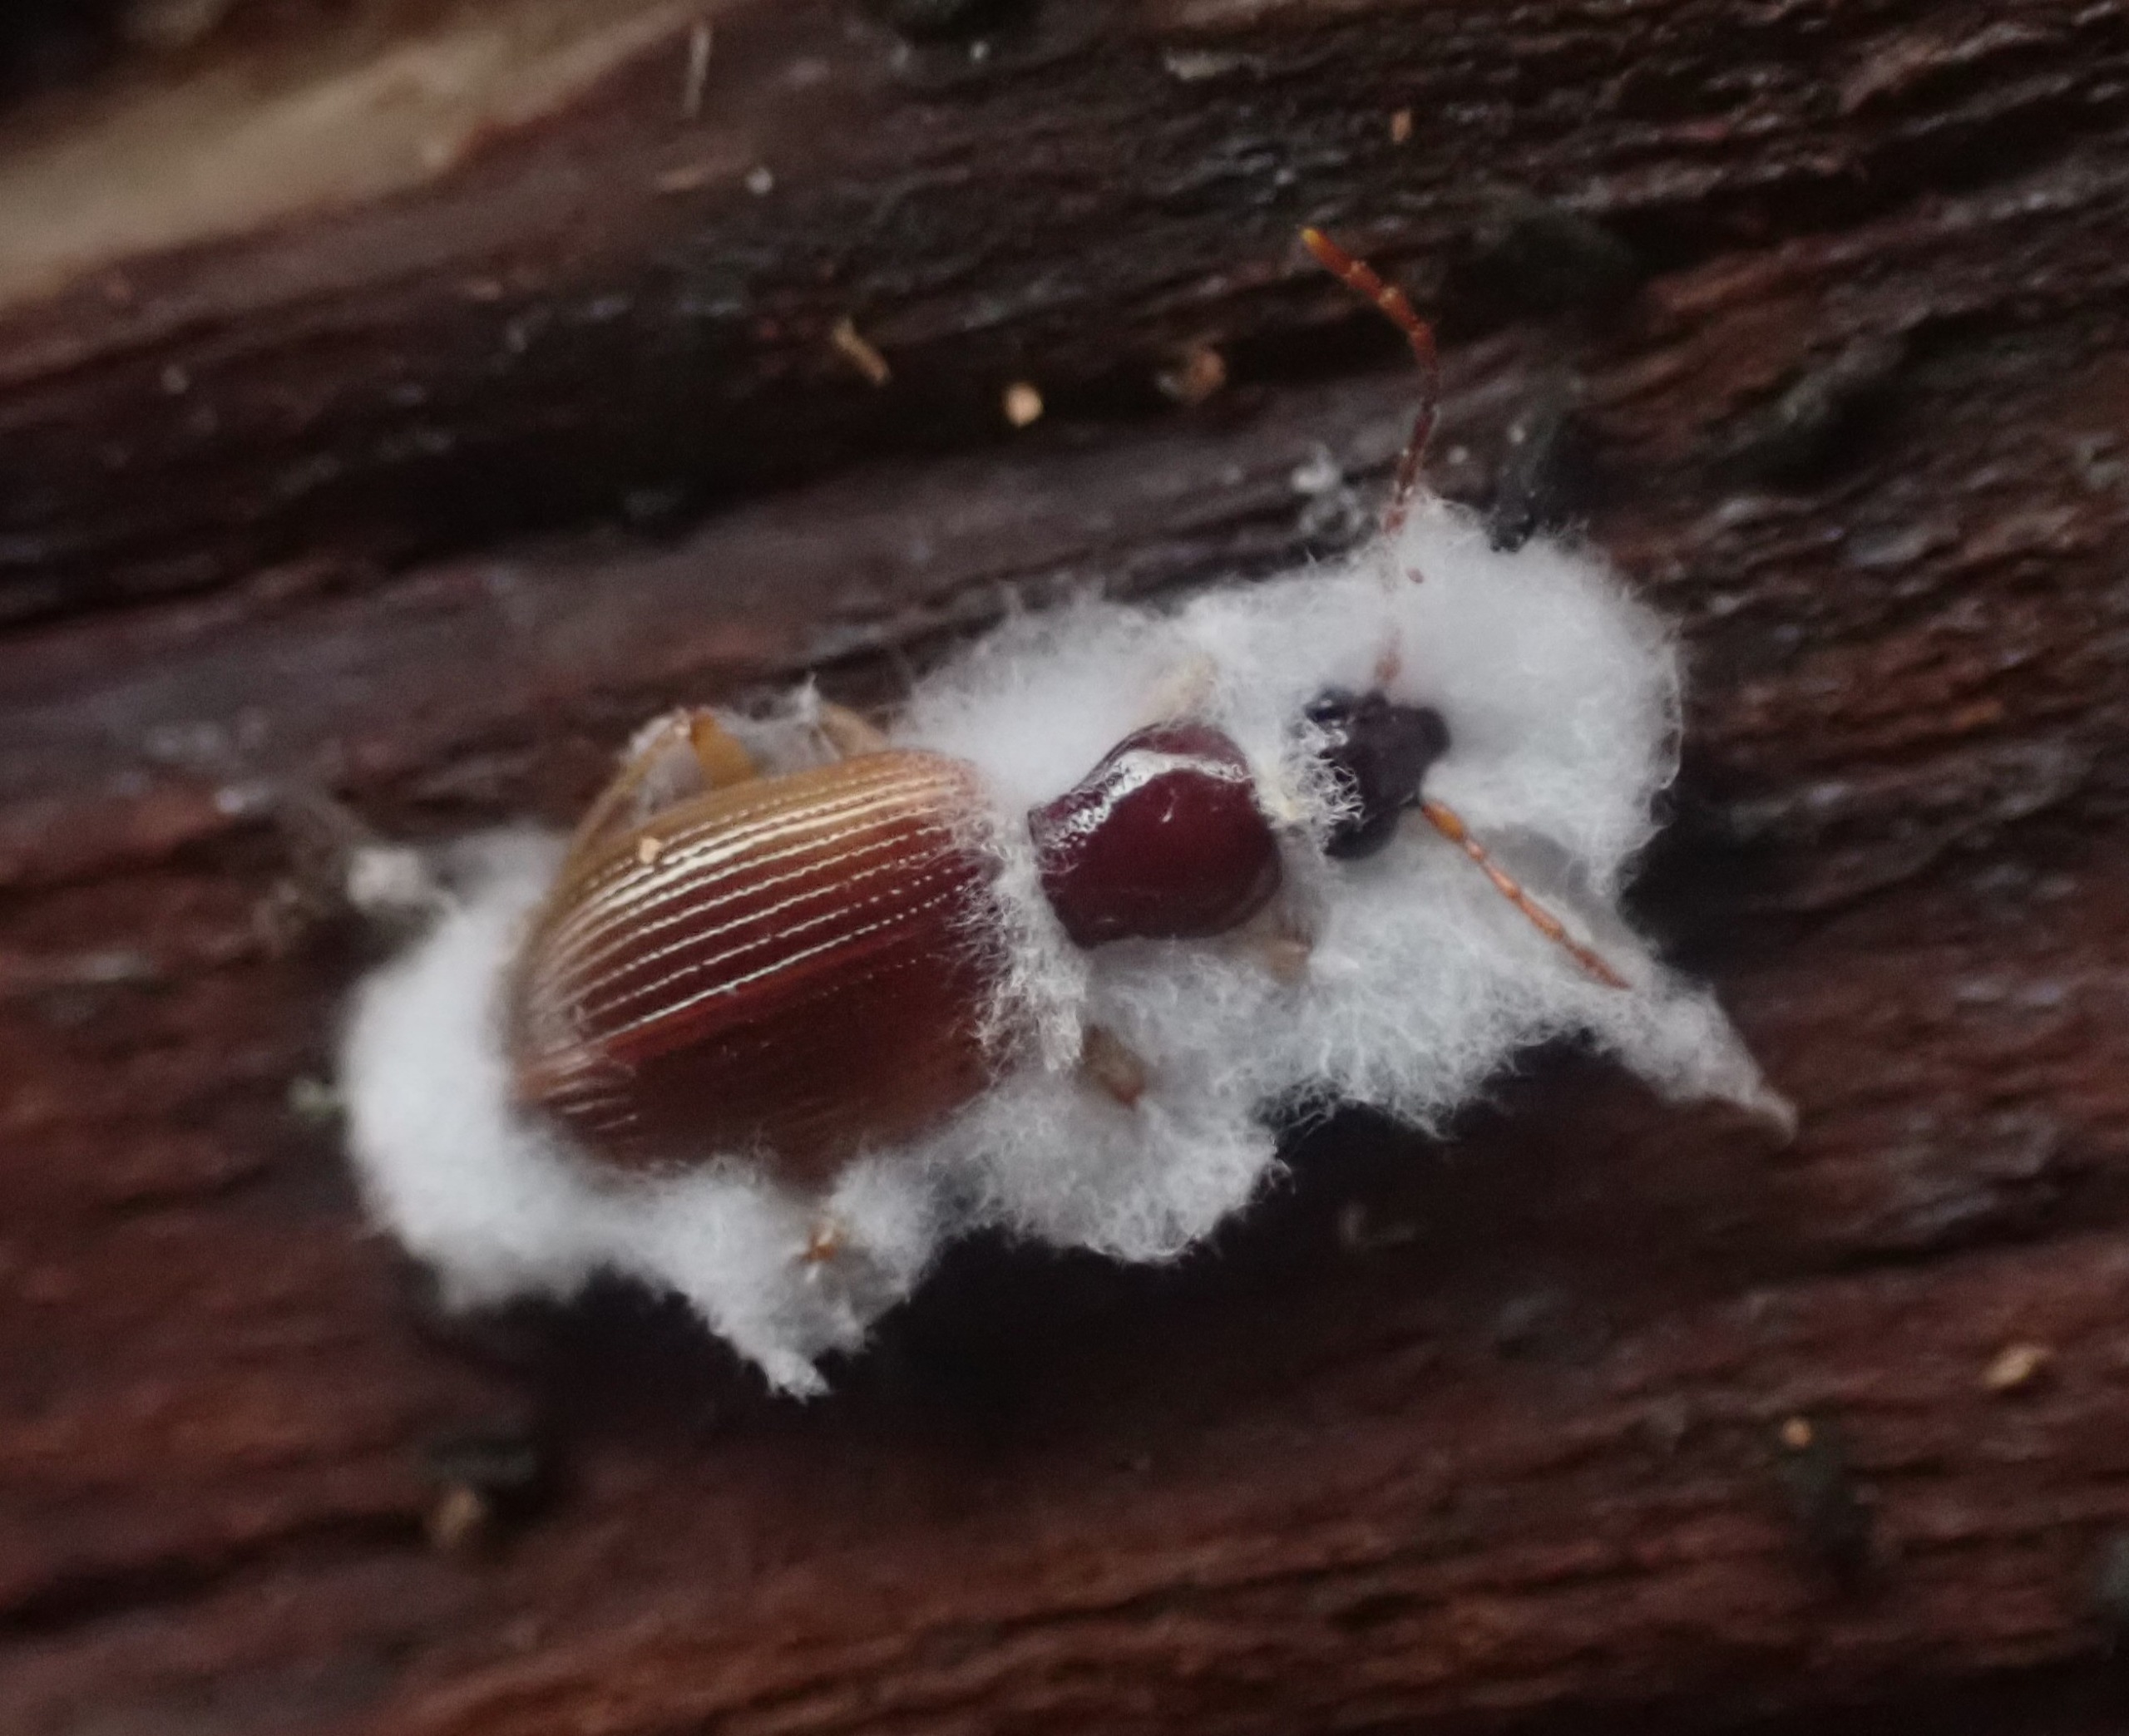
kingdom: Animalia
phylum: Arthropoda
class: Insecta
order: Coleoptera
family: Carabidae
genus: Oxypselaphus
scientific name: Oxypselaphus obscurus
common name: Rødbrun kvikløber
